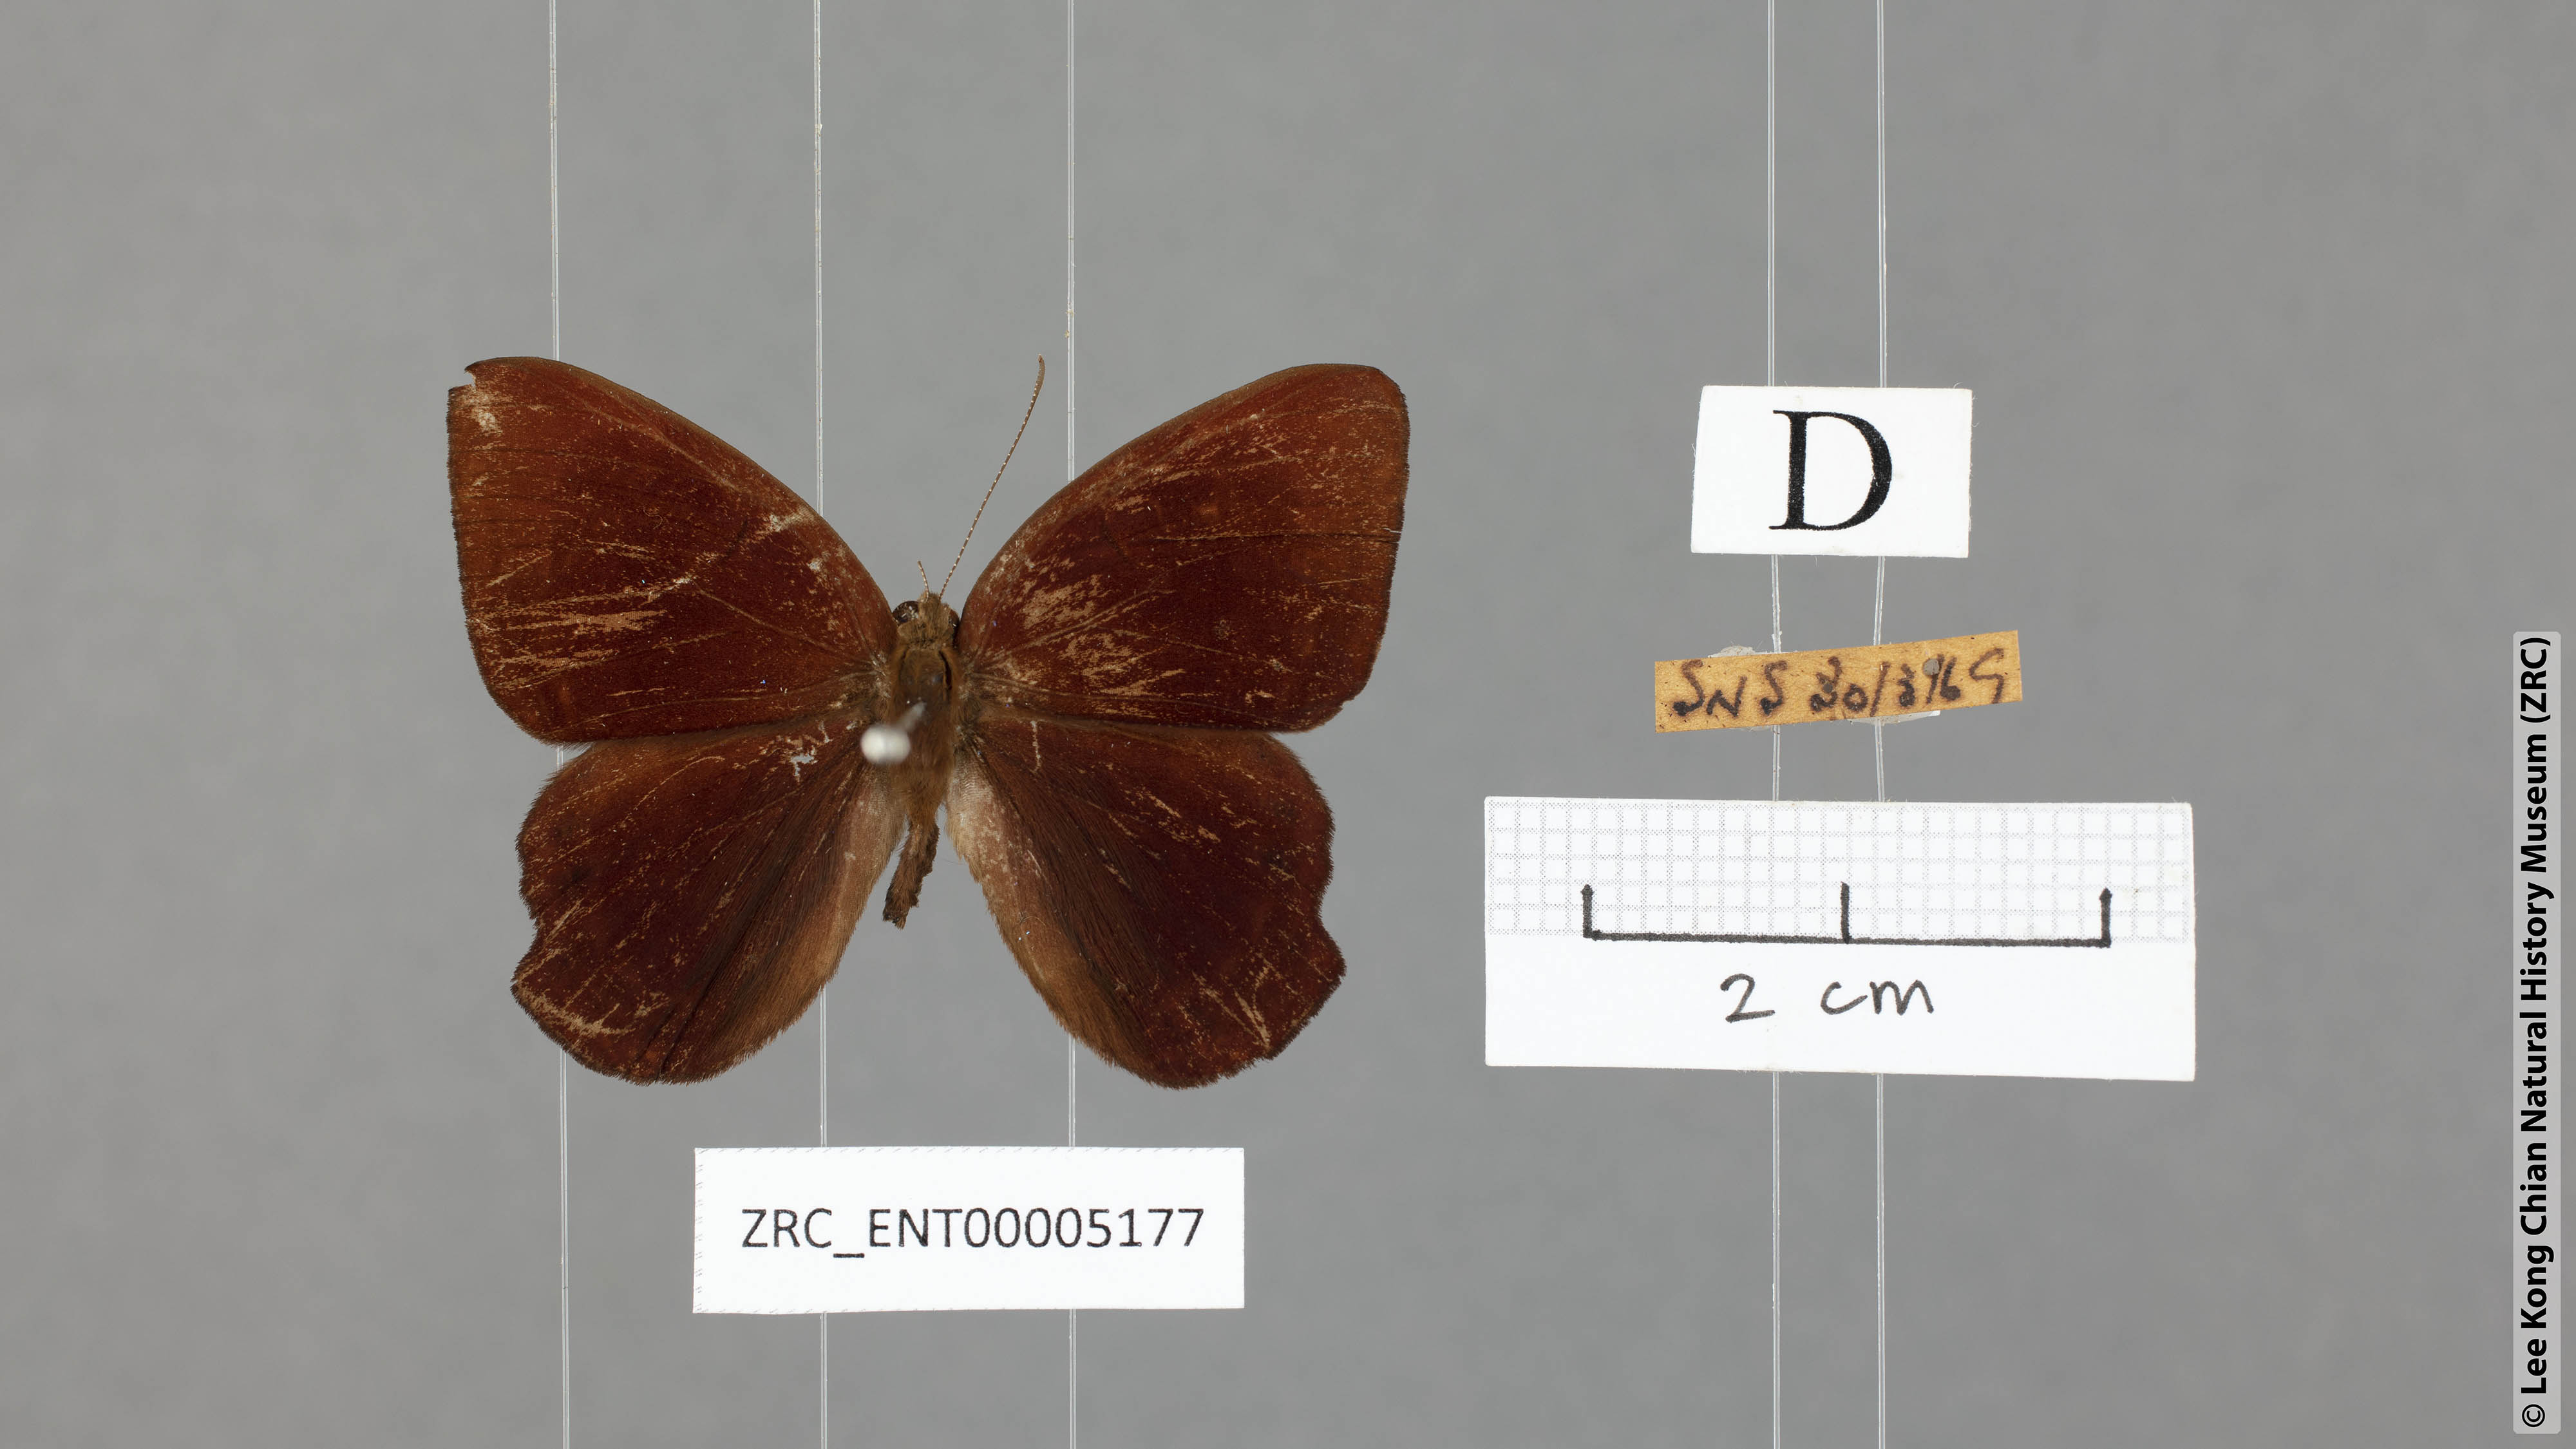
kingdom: Animalia
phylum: Arthropoda
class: Insecta
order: Lepidoptera
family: Lycaenidae
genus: Abisara
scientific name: Abisara saturata
